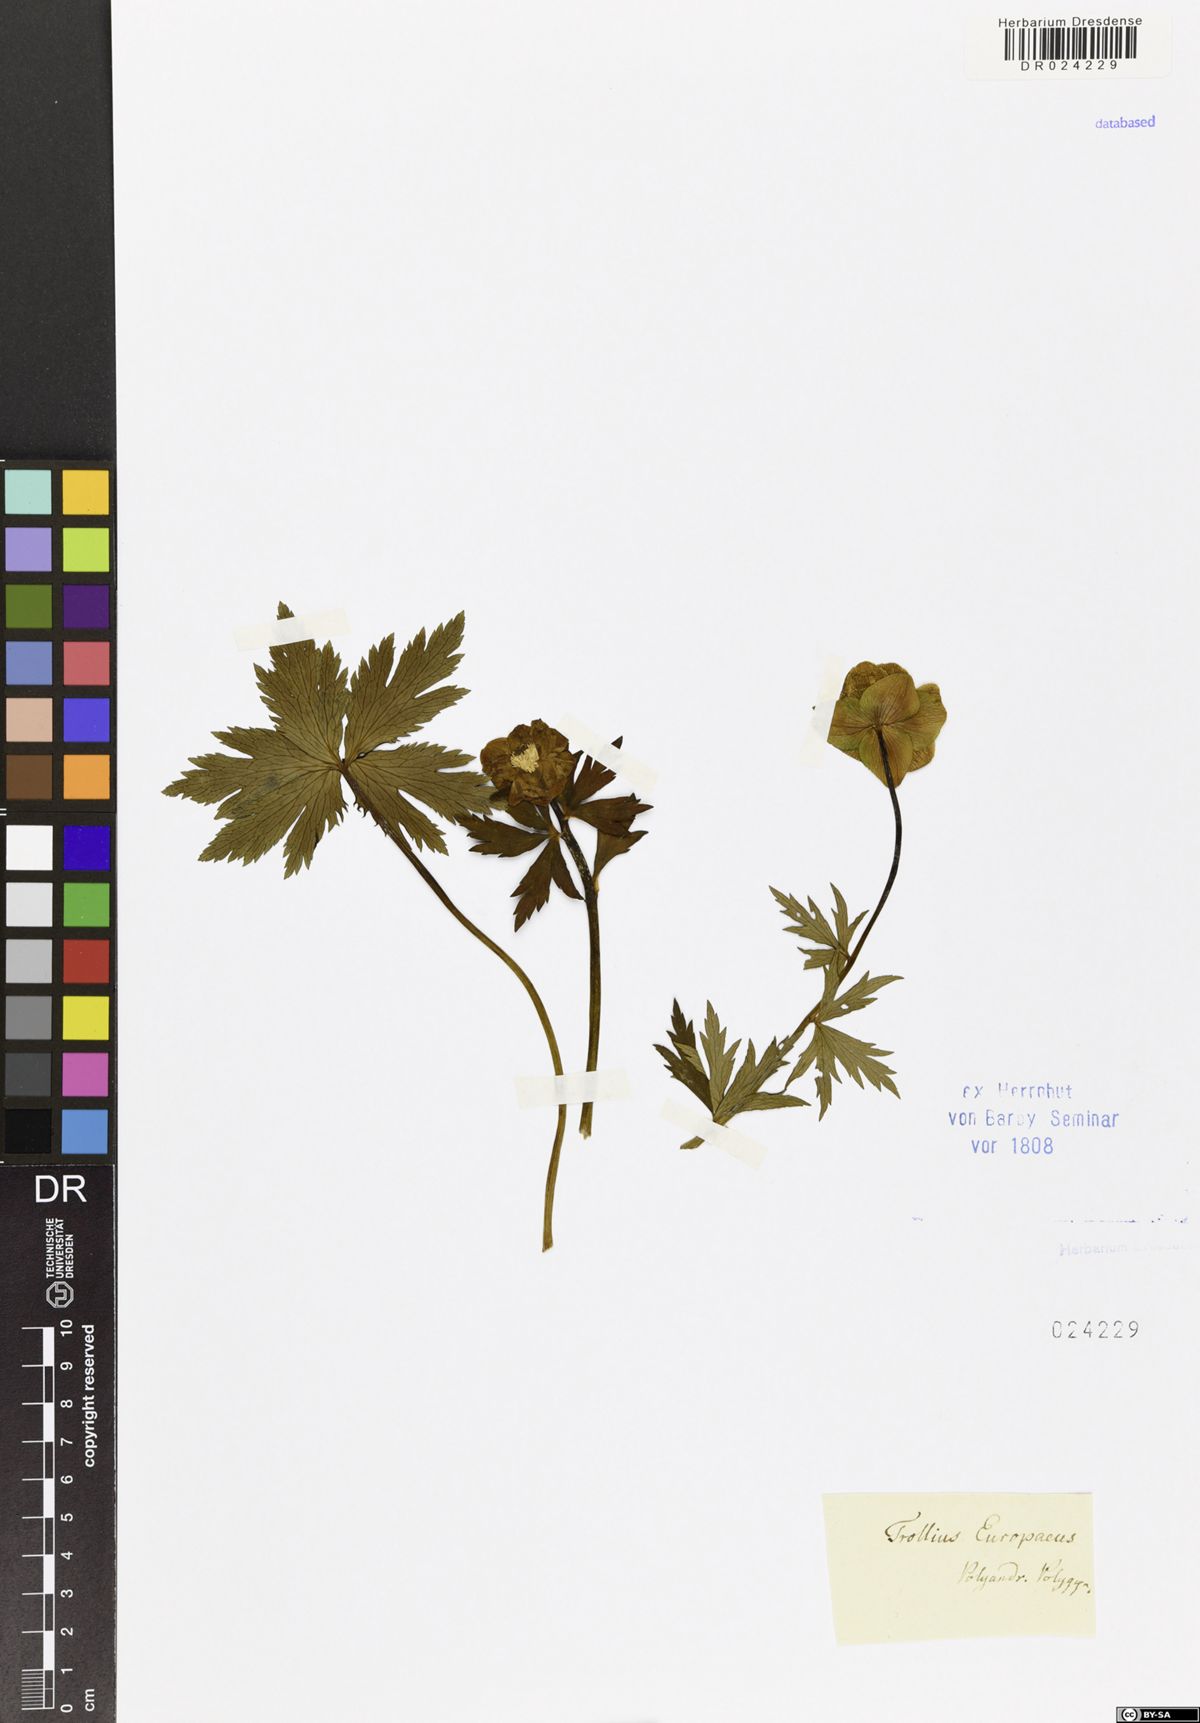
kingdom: Plantae
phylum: Tracheophyta
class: Magnoliopsida
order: Ranunculales
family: Ranunculaceae
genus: Trollius
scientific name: Trollius europaeus
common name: European globeflower
